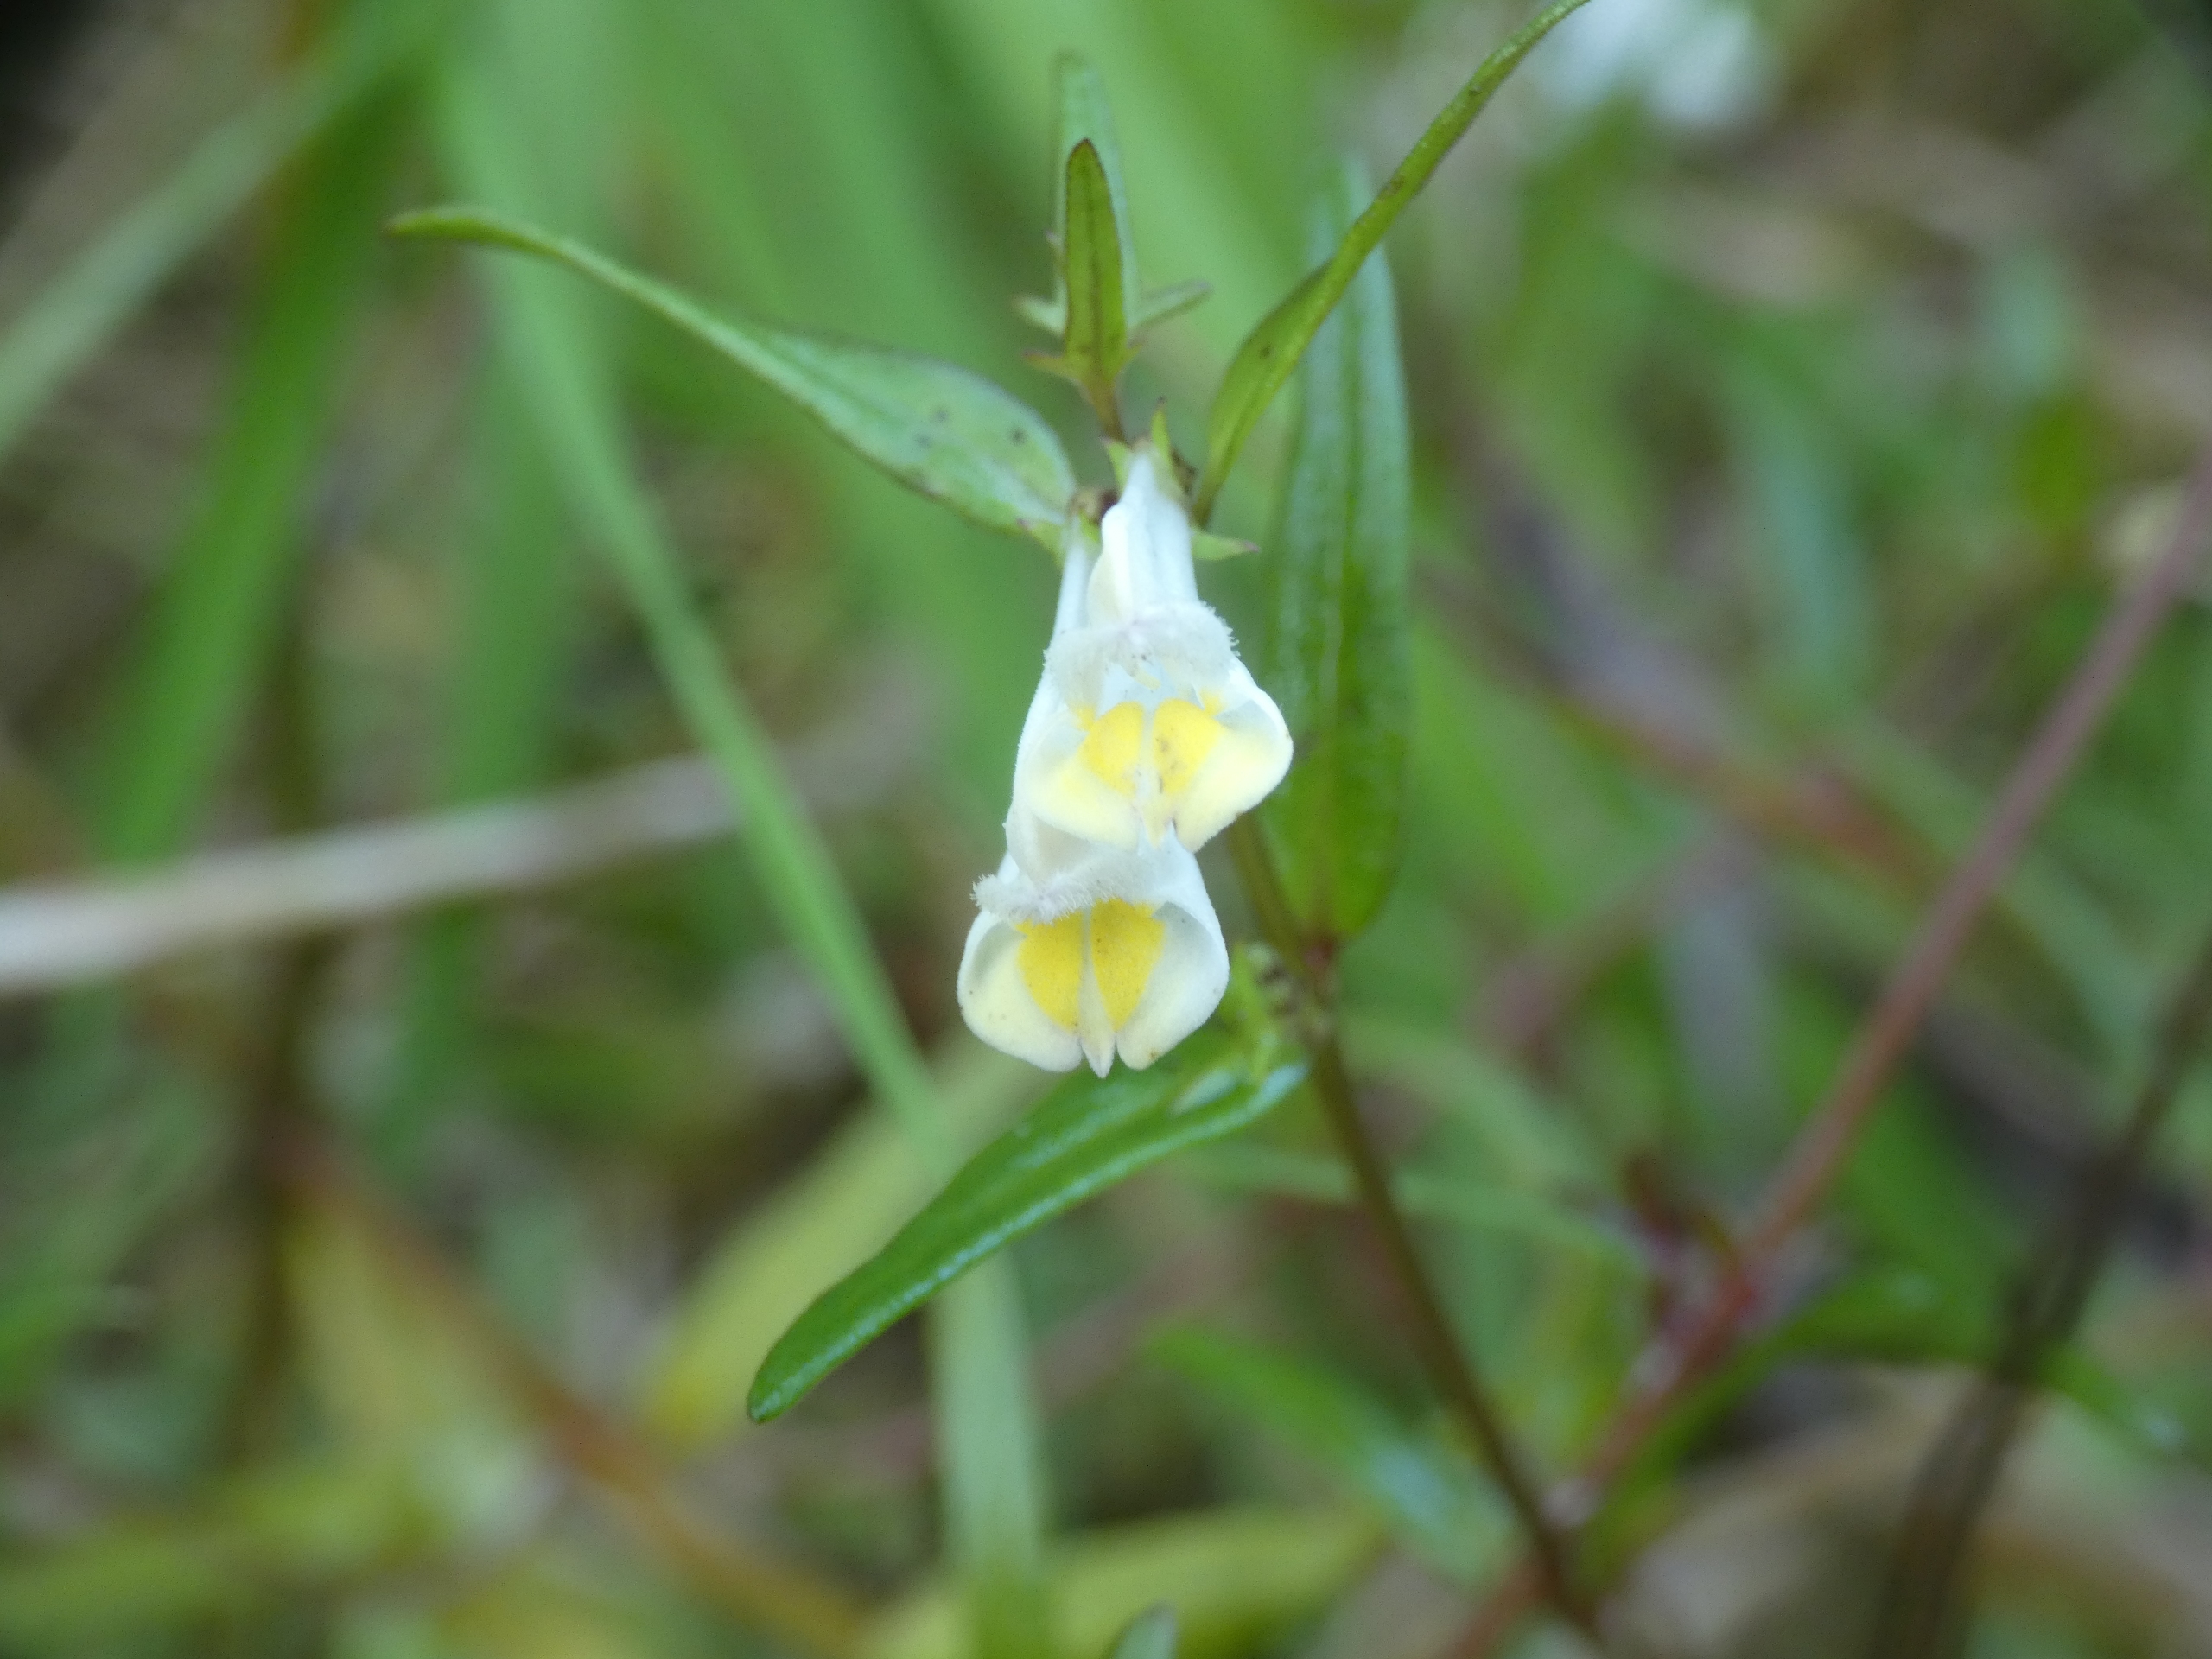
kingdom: Plantae
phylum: Tracheophyta
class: Magnoliopsida
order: Lamiales
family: Orobanchaceae
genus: Melampyrum
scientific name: Melampyrum pratense
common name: Almindelig kohvede
